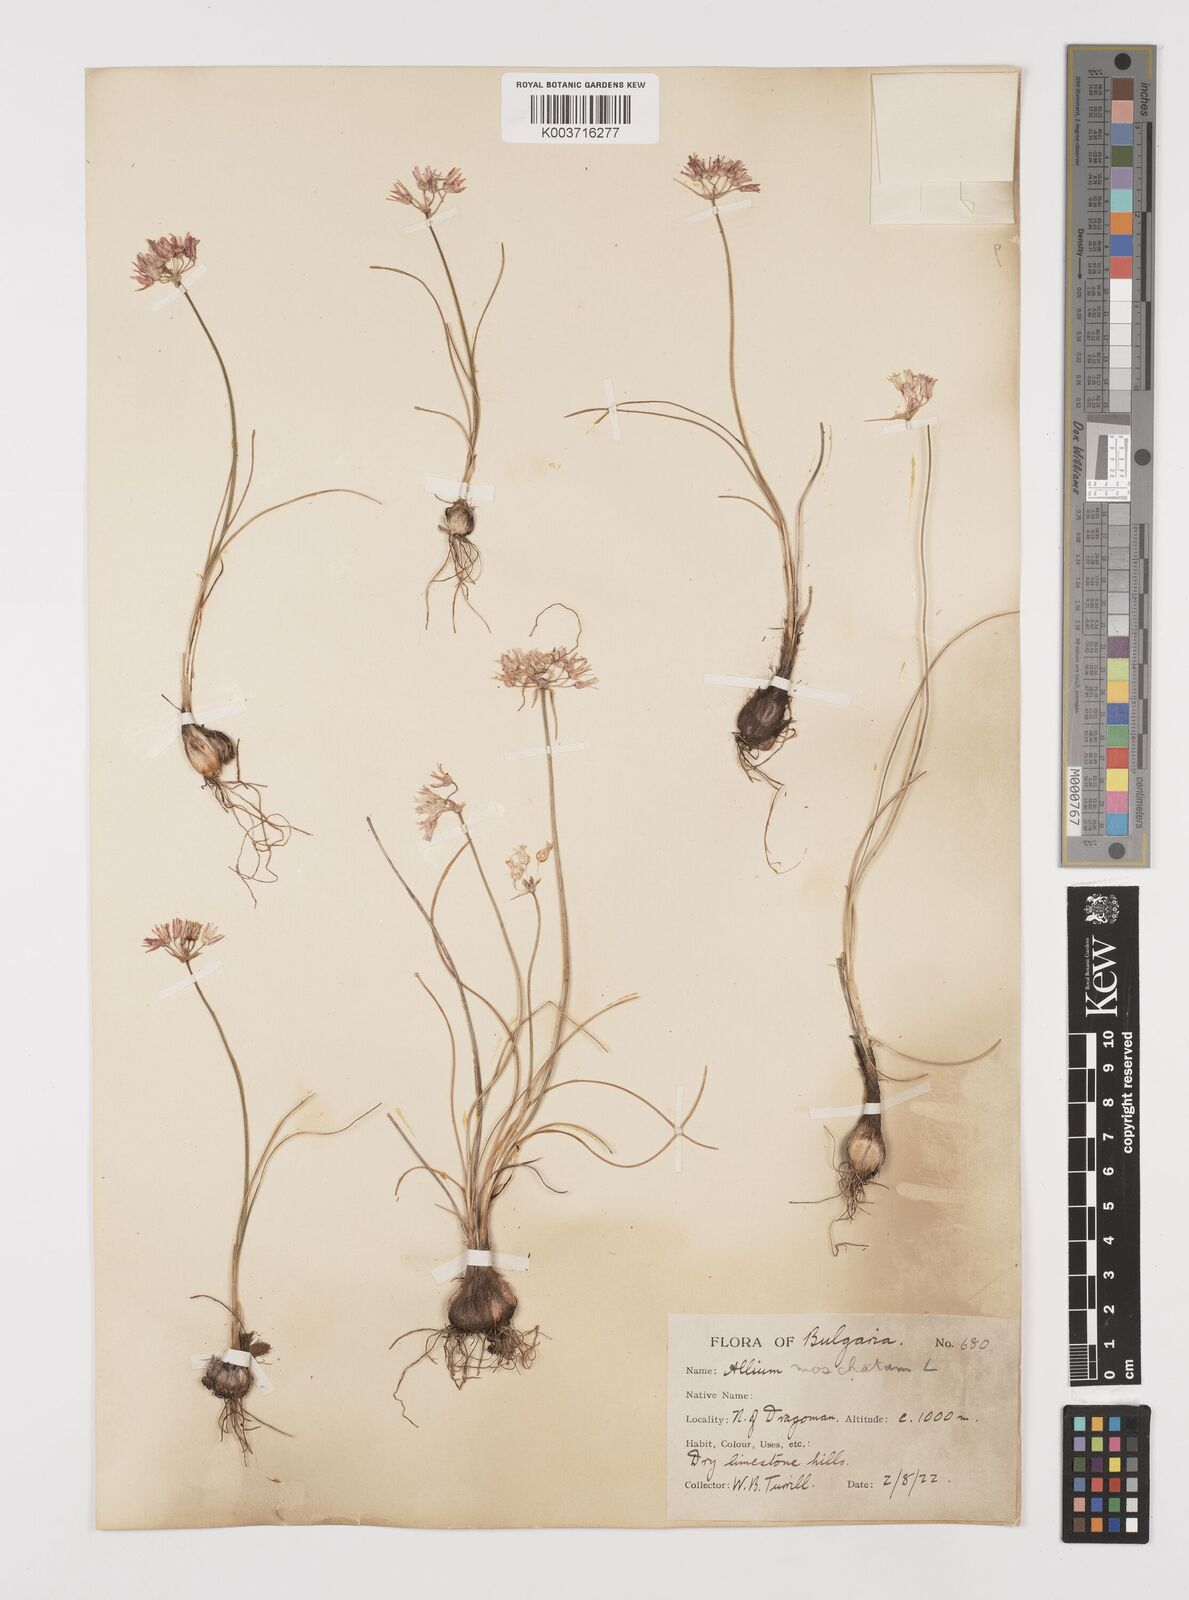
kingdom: Plantae
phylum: Tracheophyta
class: Liliopsida
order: Asparagales
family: Amaryllidaceae
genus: Allium
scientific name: Allium moschatum
